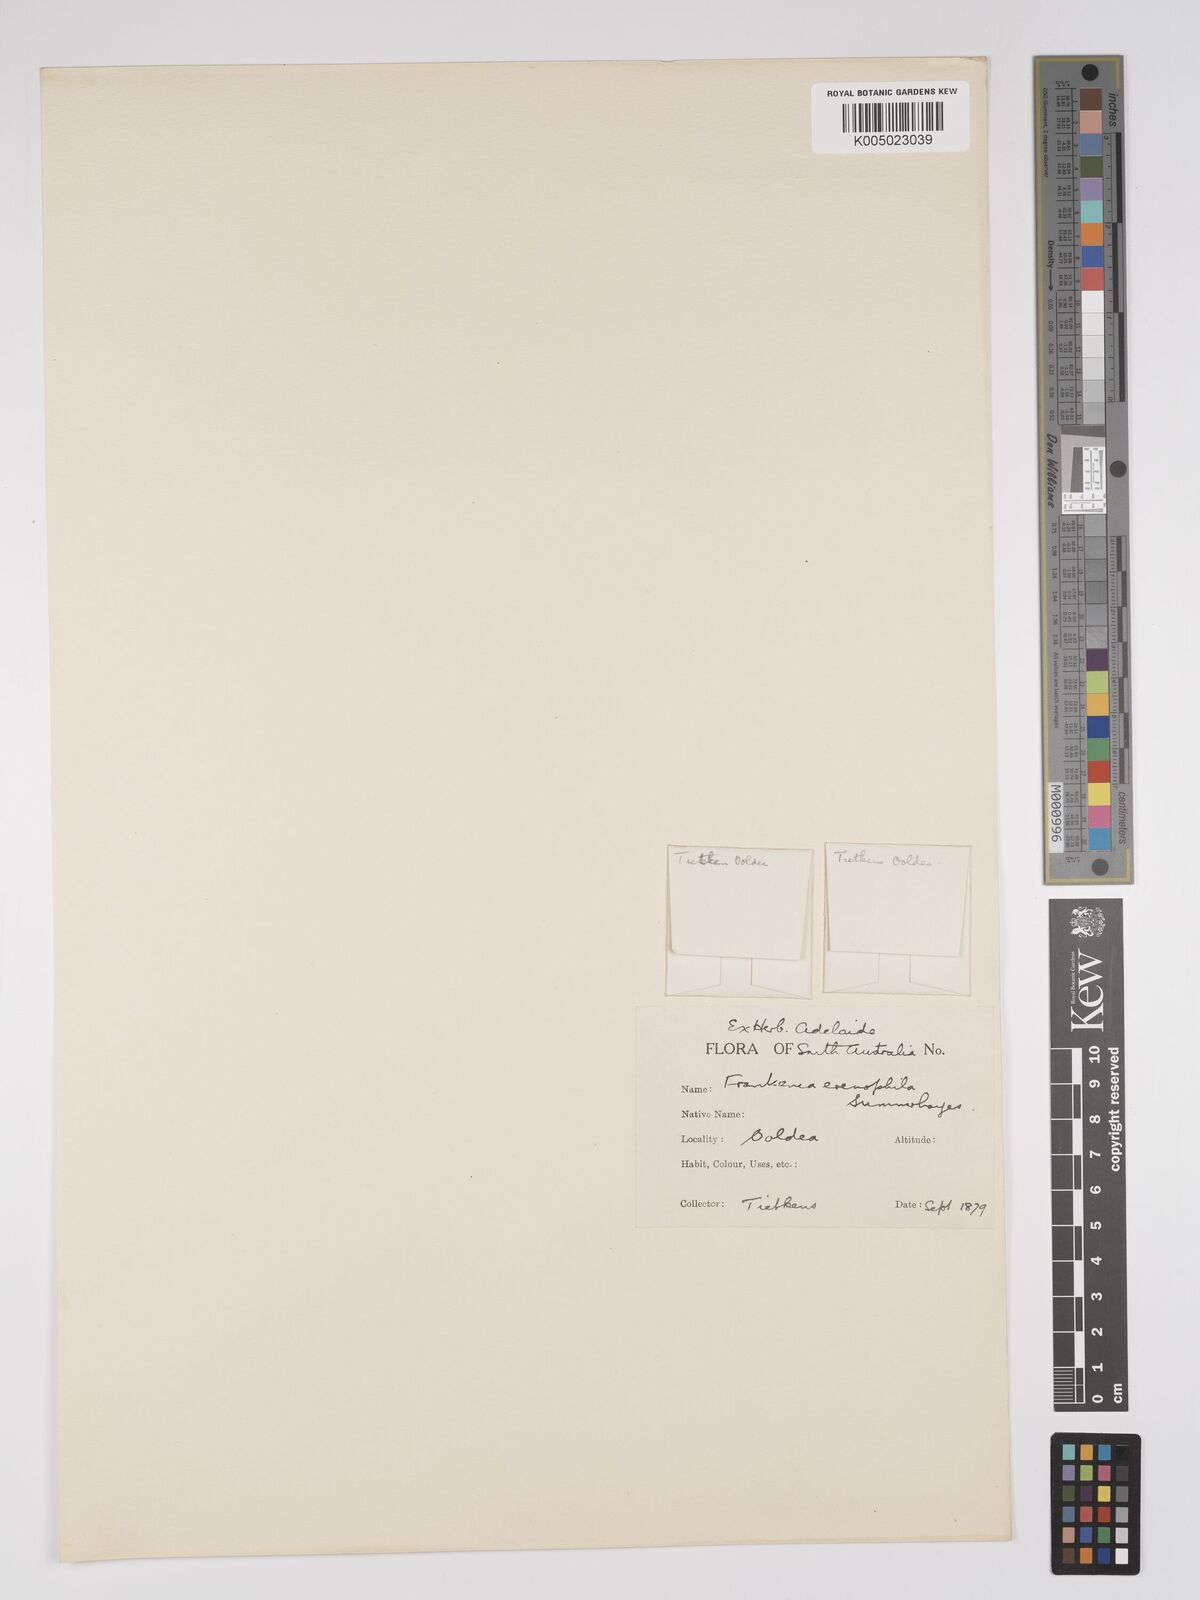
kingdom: Plantae
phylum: Tracheophyta
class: Magnoliopsida
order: Caryophyllales
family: Frankeniaceae
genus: Frankenia
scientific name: Frankenia eremophila
